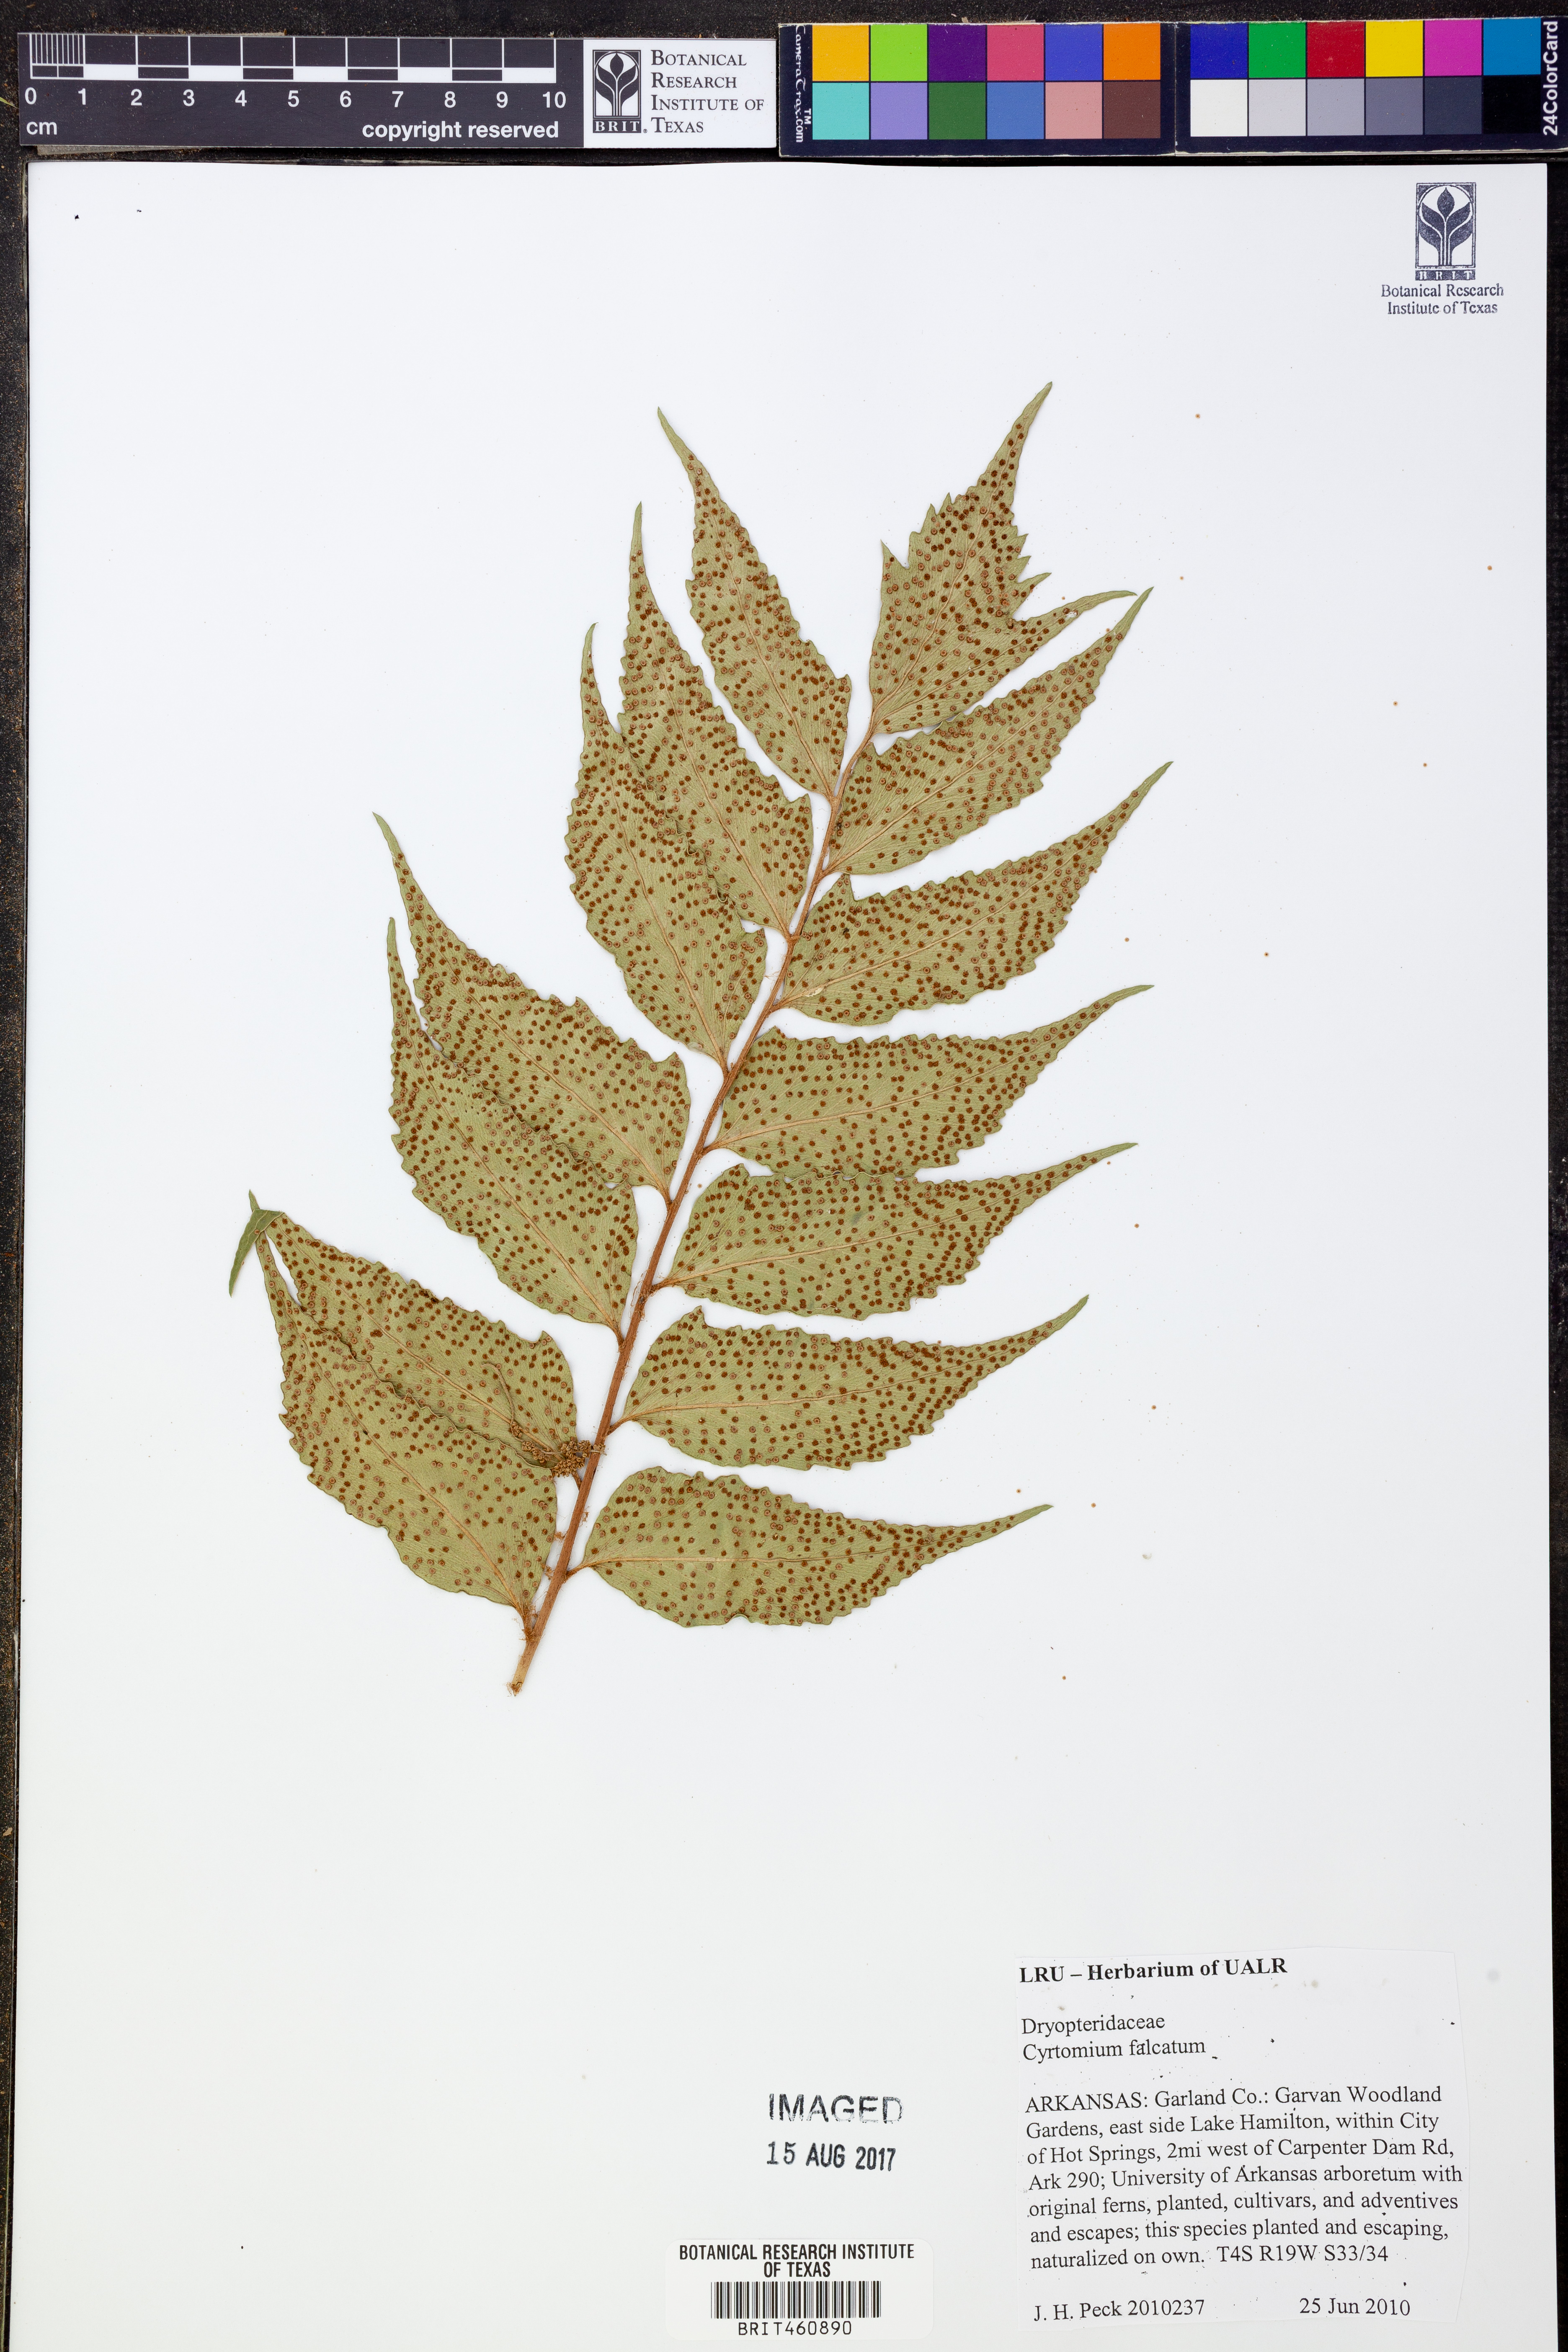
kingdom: Plantae
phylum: Tracheophyta
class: Polypodiopsida
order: Polypodiales
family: Dryopteridaceae
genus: Cyrtomium
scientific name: Cyrtomium falcatum
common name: House holly-fern
